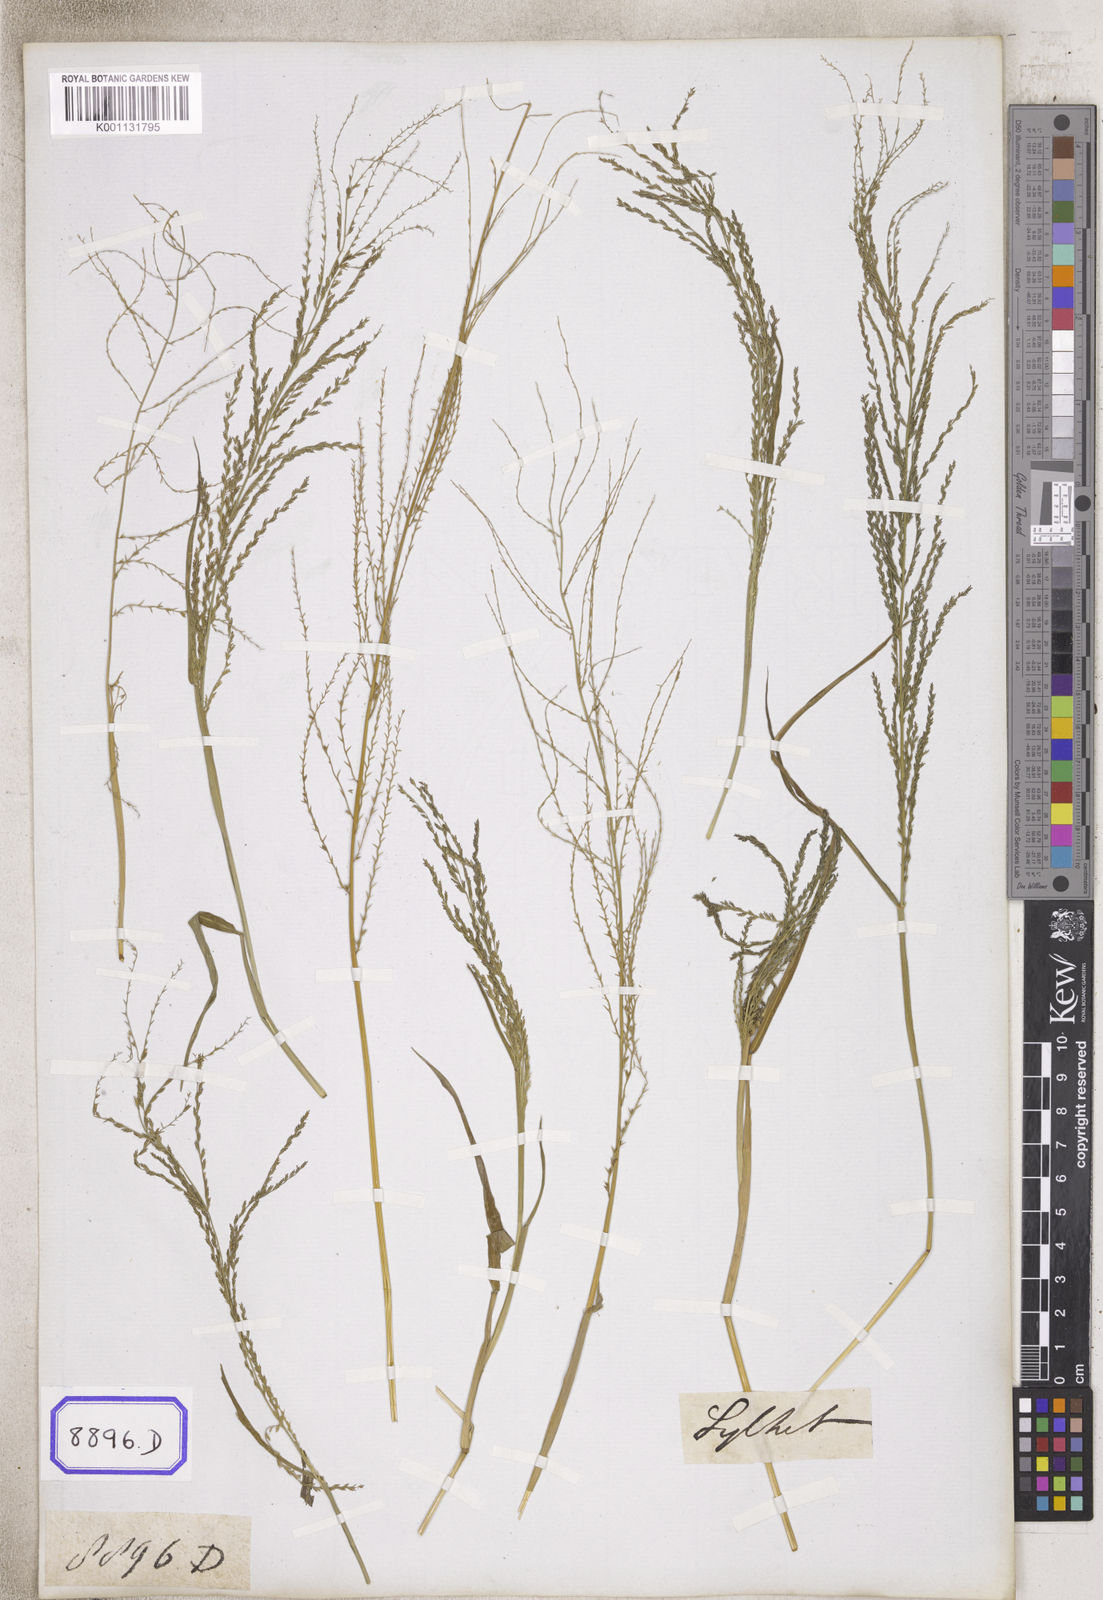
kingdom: Plantae
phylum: Tracheophyta
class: Liliopsida
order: Poales
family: Poaceae
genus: Leptochloa
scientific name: Leptochloa chinensis
